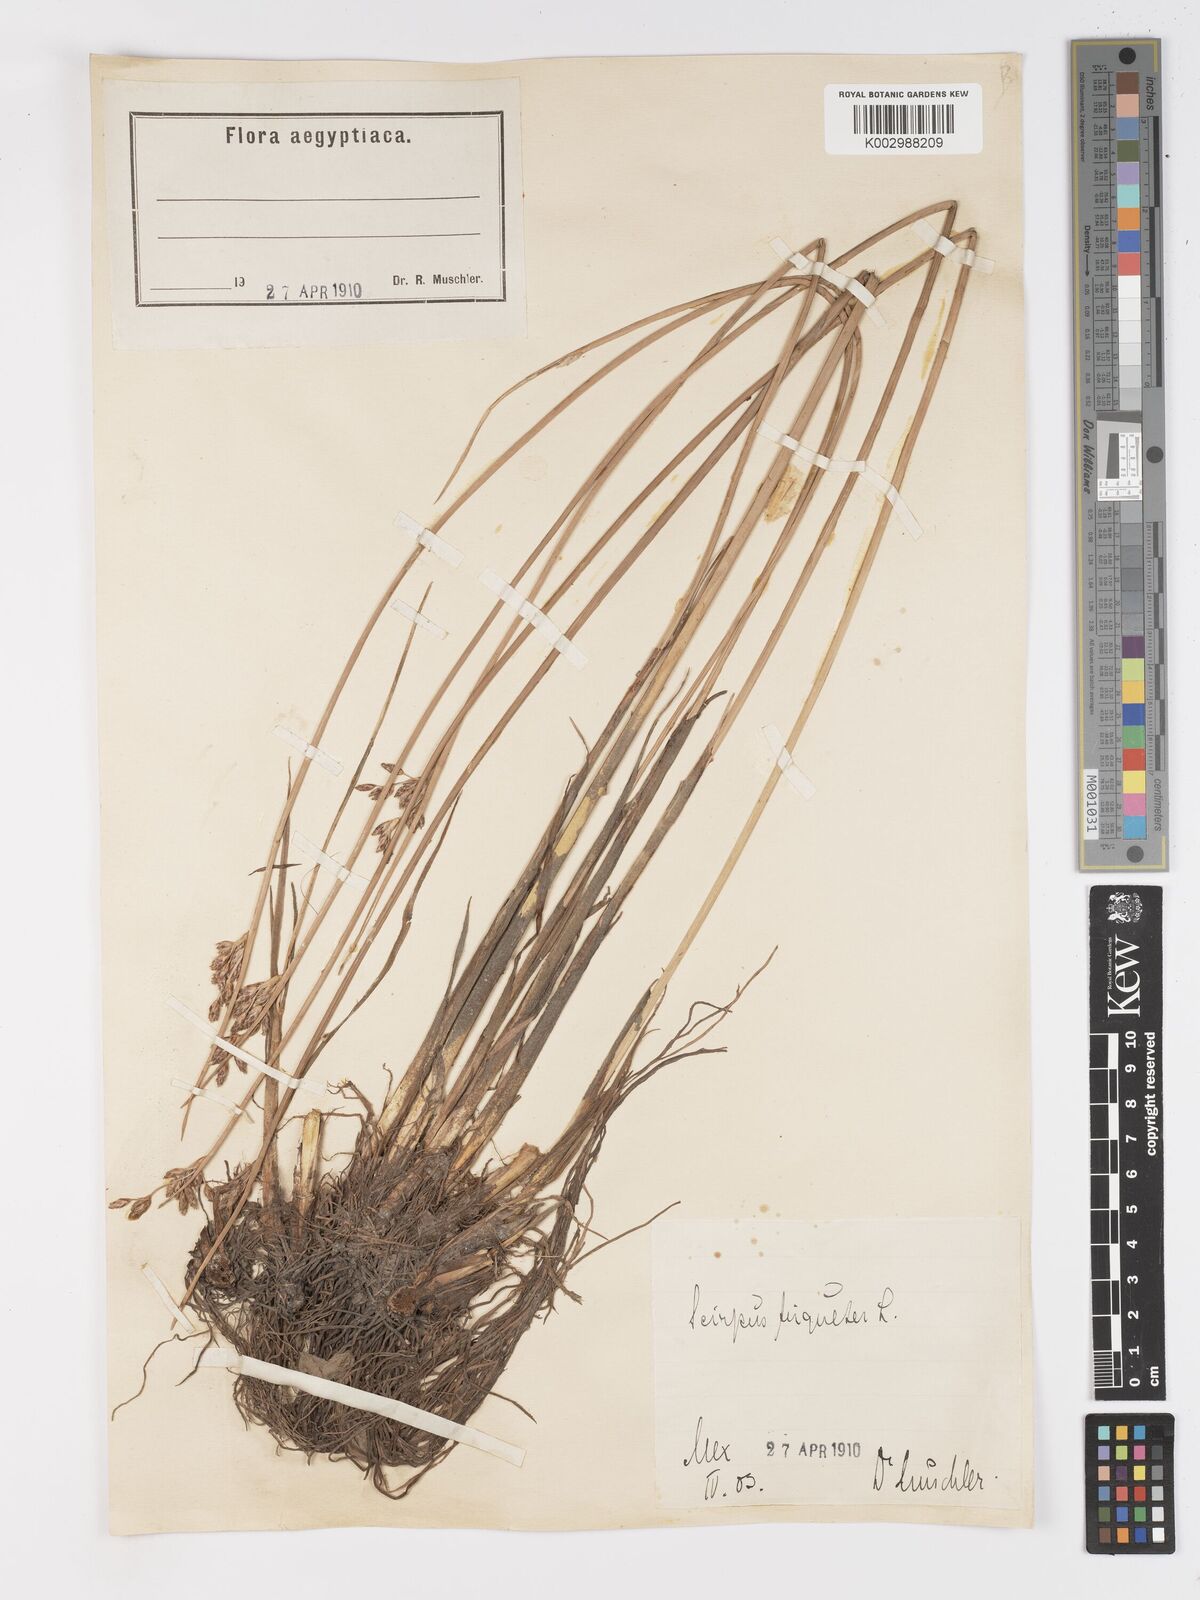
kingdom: Plantae
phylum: Tracheophyta
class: Liliopsida
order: Poales
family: Cyperaceae
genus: Schoenoplectus
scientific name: Schoenoplectus litoralis
